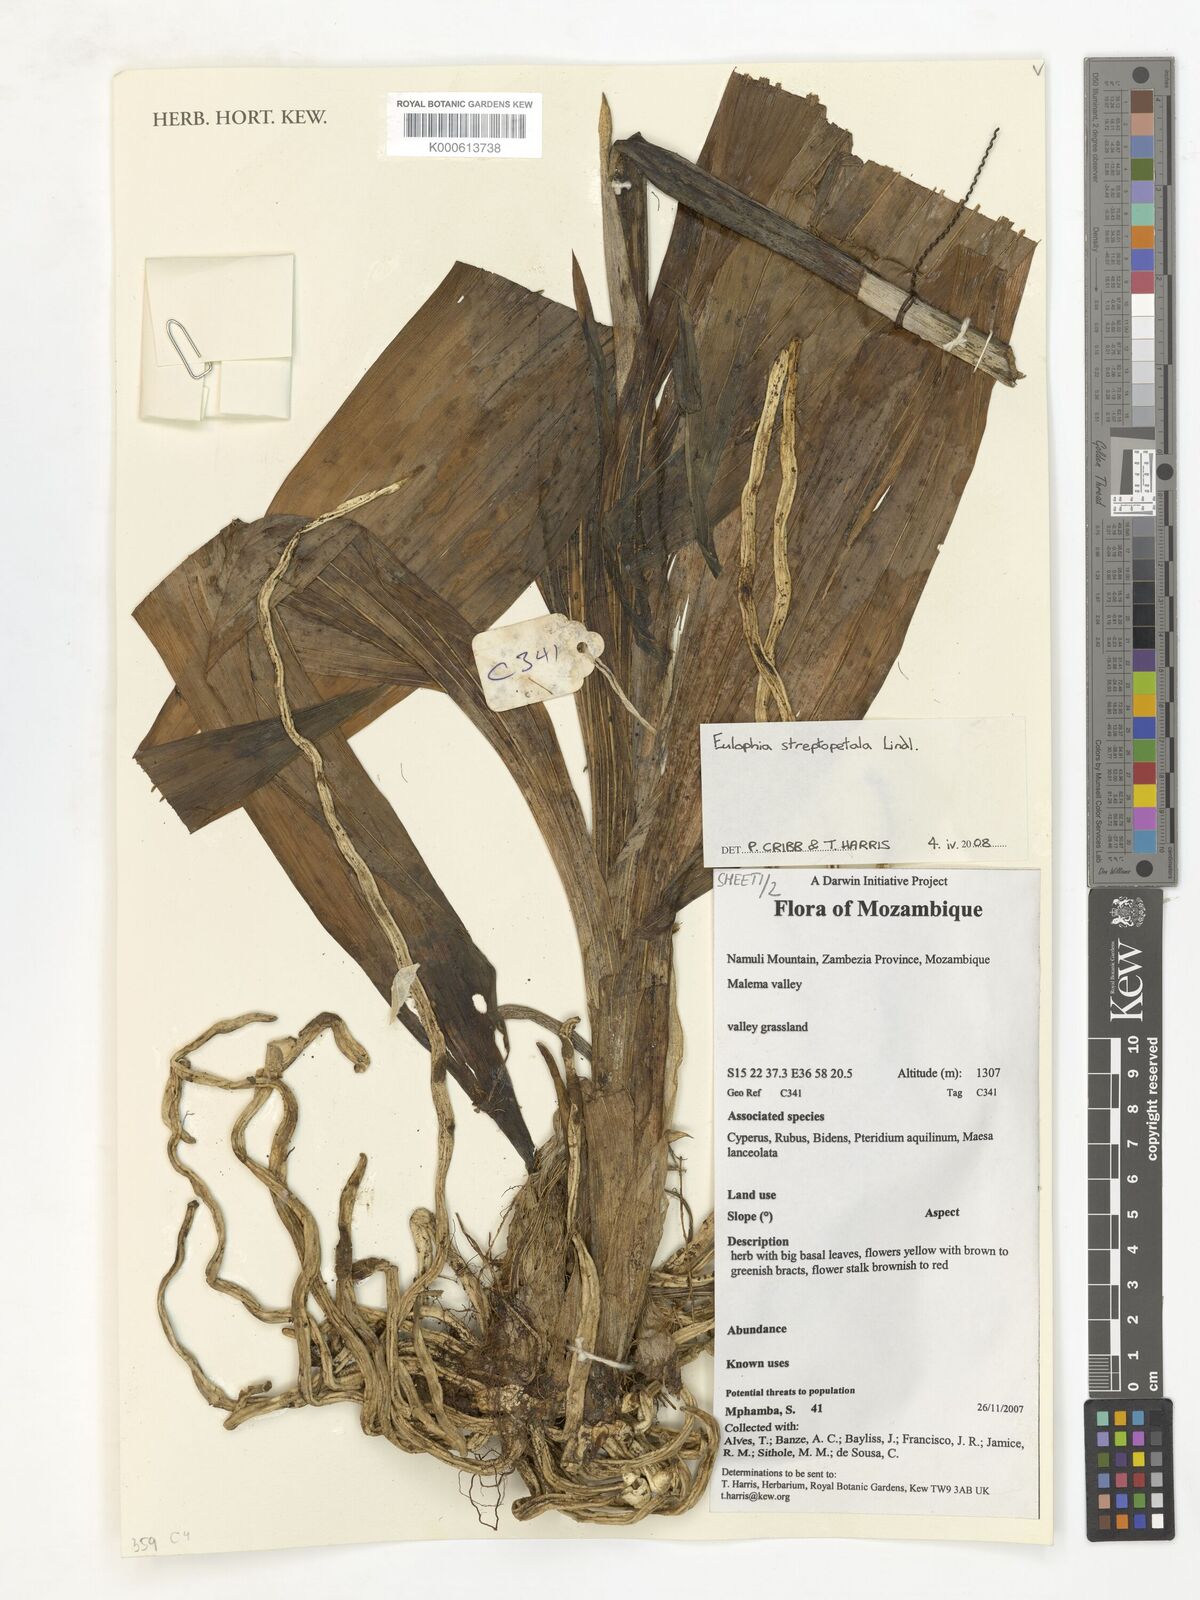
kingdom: Plantae
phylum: Tracheophyta
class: Liliopsida
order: Asparagales
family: Orchidaceae
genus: Eulophia
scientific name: Eulophia streptopetala
